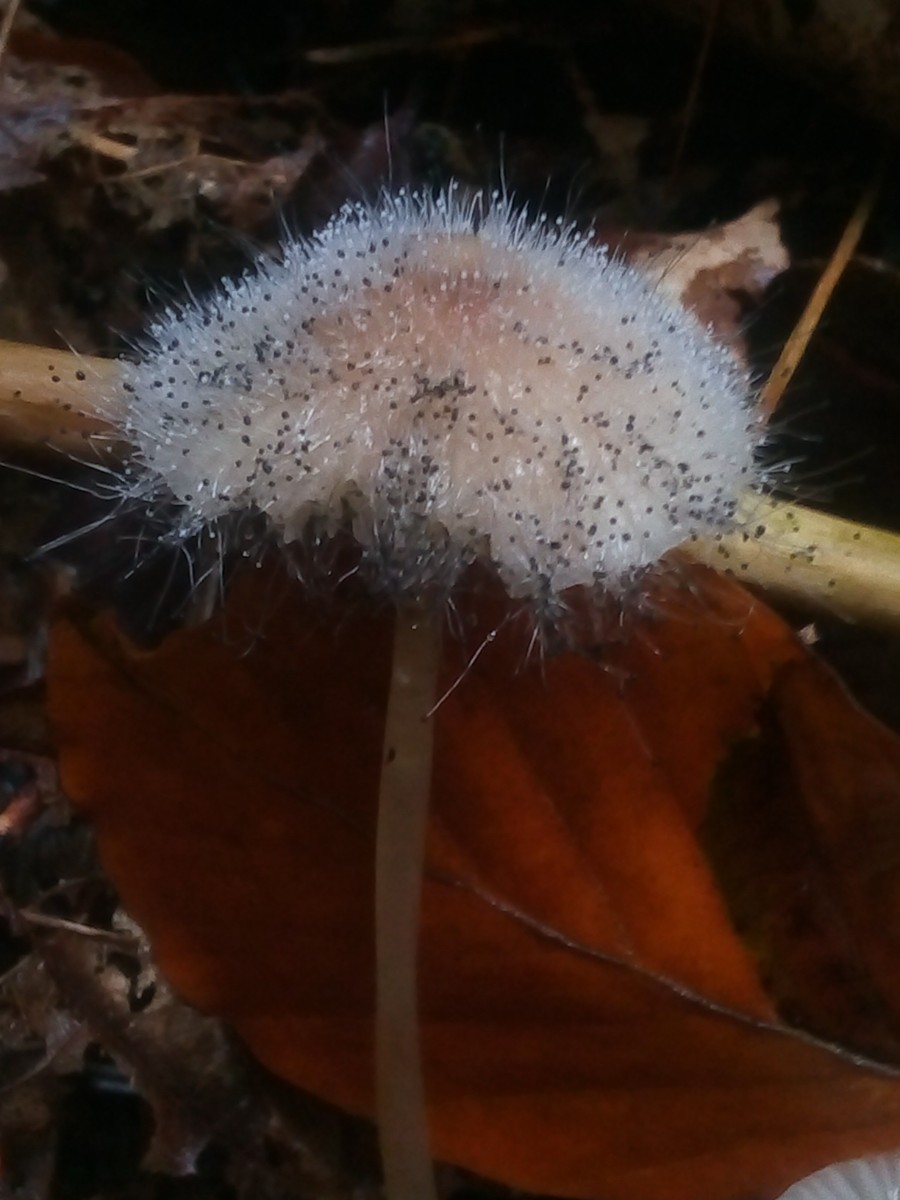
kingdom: Fungi
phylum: Mucoromycota
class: Mucoromycetes
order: Mucorales
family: Phycomycetaceae
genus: Spinellus
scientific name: Spinellus fusiger
